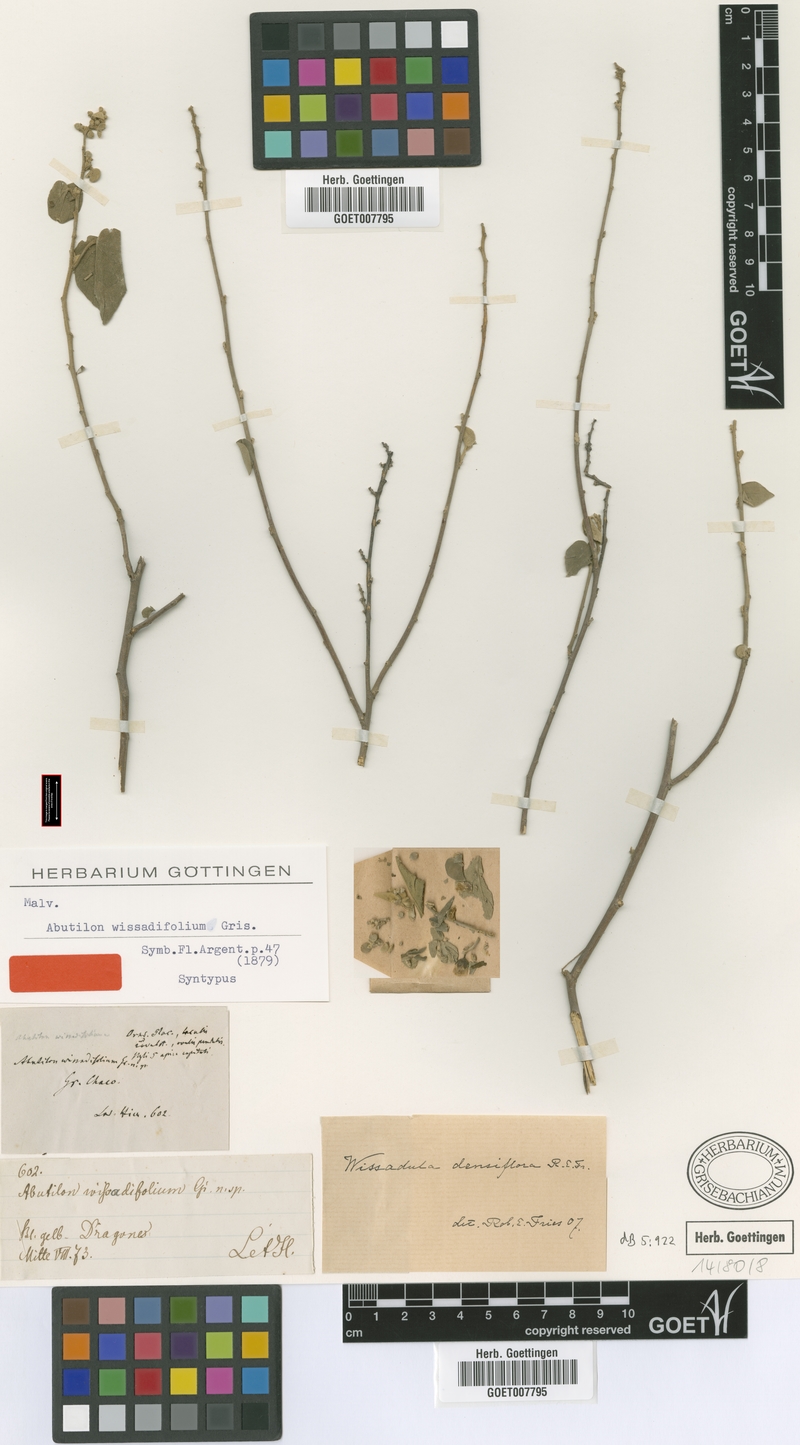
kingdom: Plantae
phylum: Tracheophyta
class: Magnoliopsida
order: Malvales
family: Malvaceae
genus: Wissadula
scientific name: Wissadula densiflora
